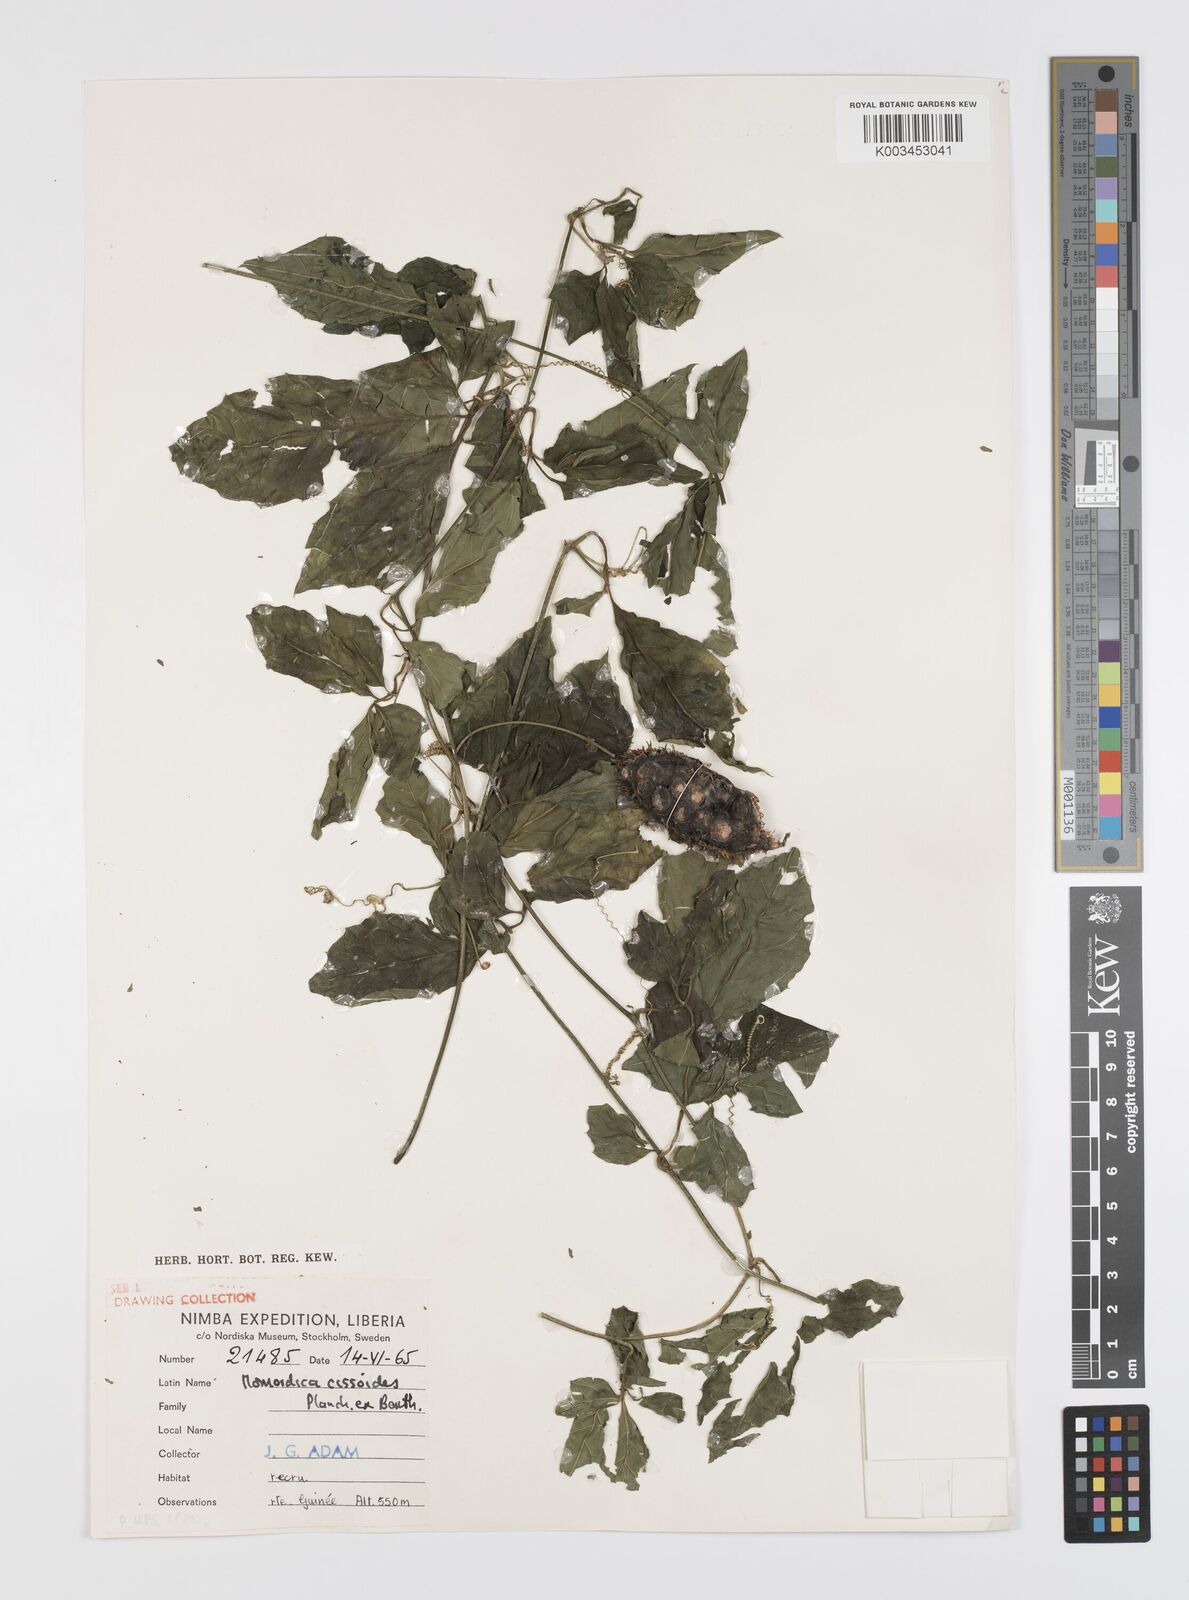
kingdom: Plantae
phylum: Tracheophyta
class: Magnoliopsida
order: Cucurbitales
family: Cucurbitaceae
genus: Momordica
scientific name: Momordica cissoides
